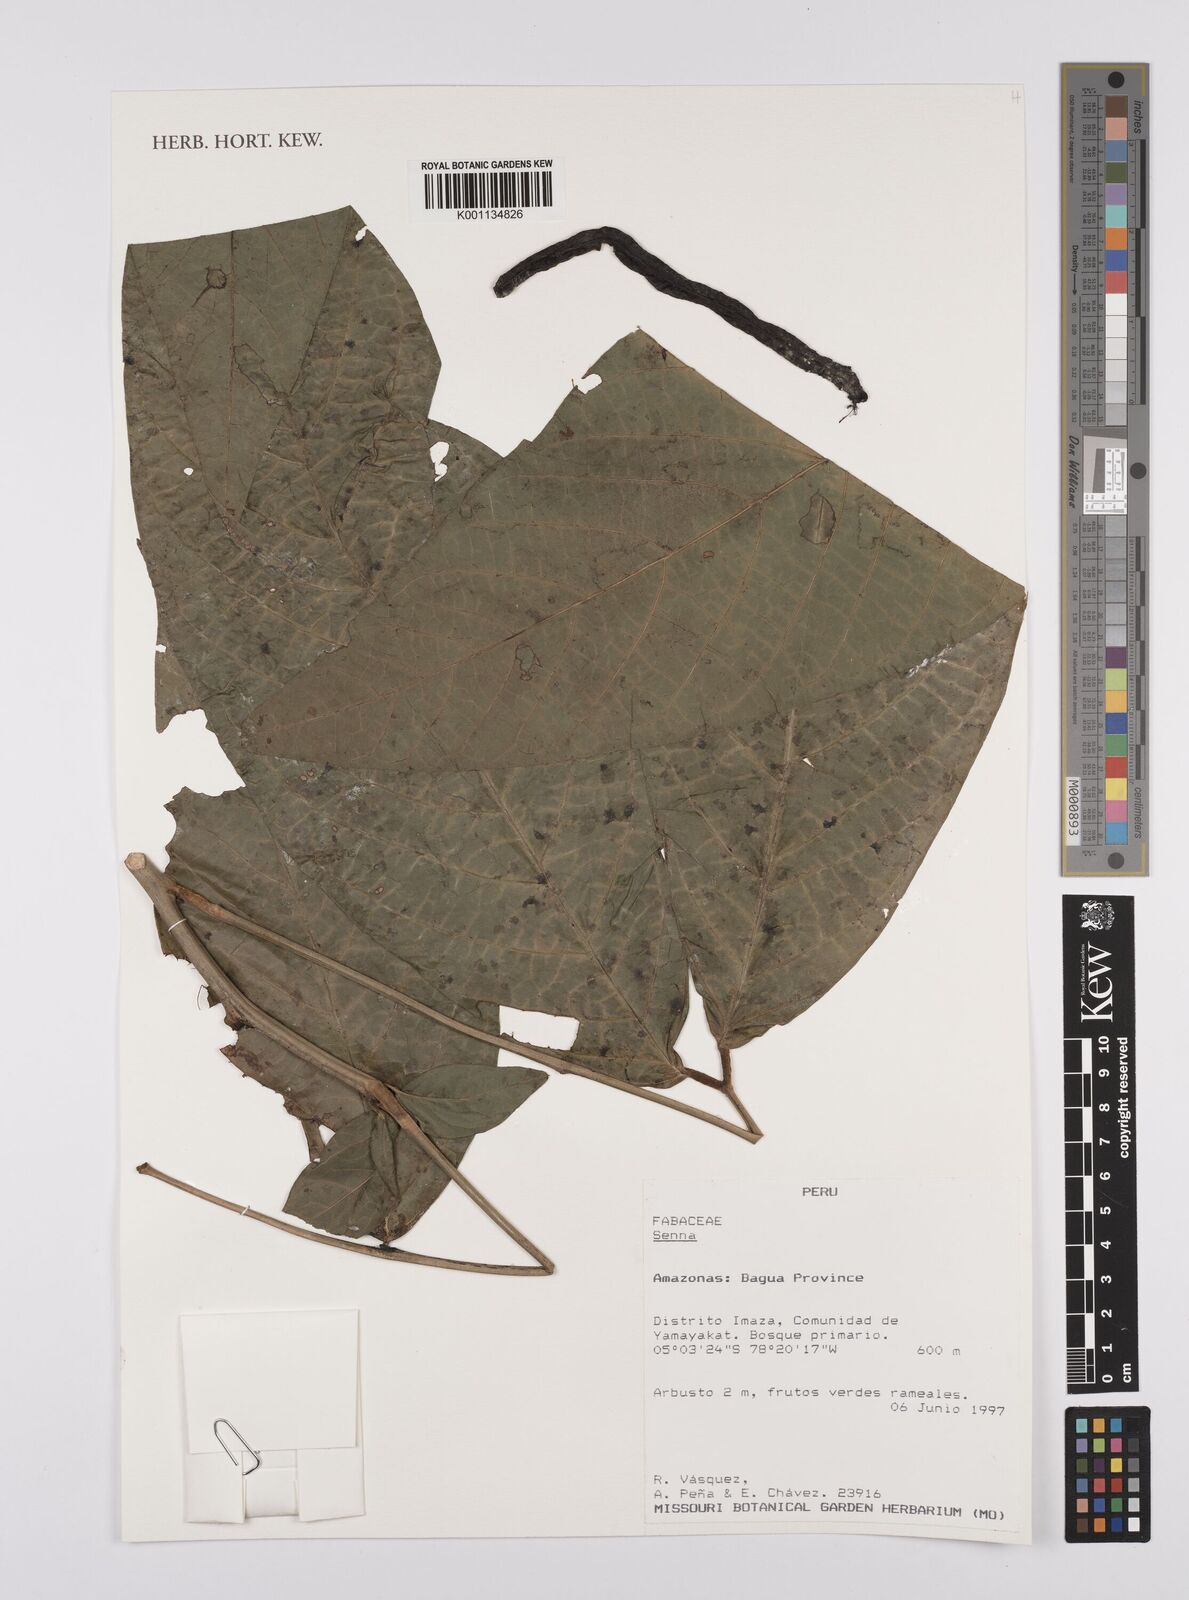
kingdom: Plantae
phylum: Tracheophyta
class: Magnoliopsida
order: Fabales
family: Fabaceae
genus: Senna
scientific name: Senna
